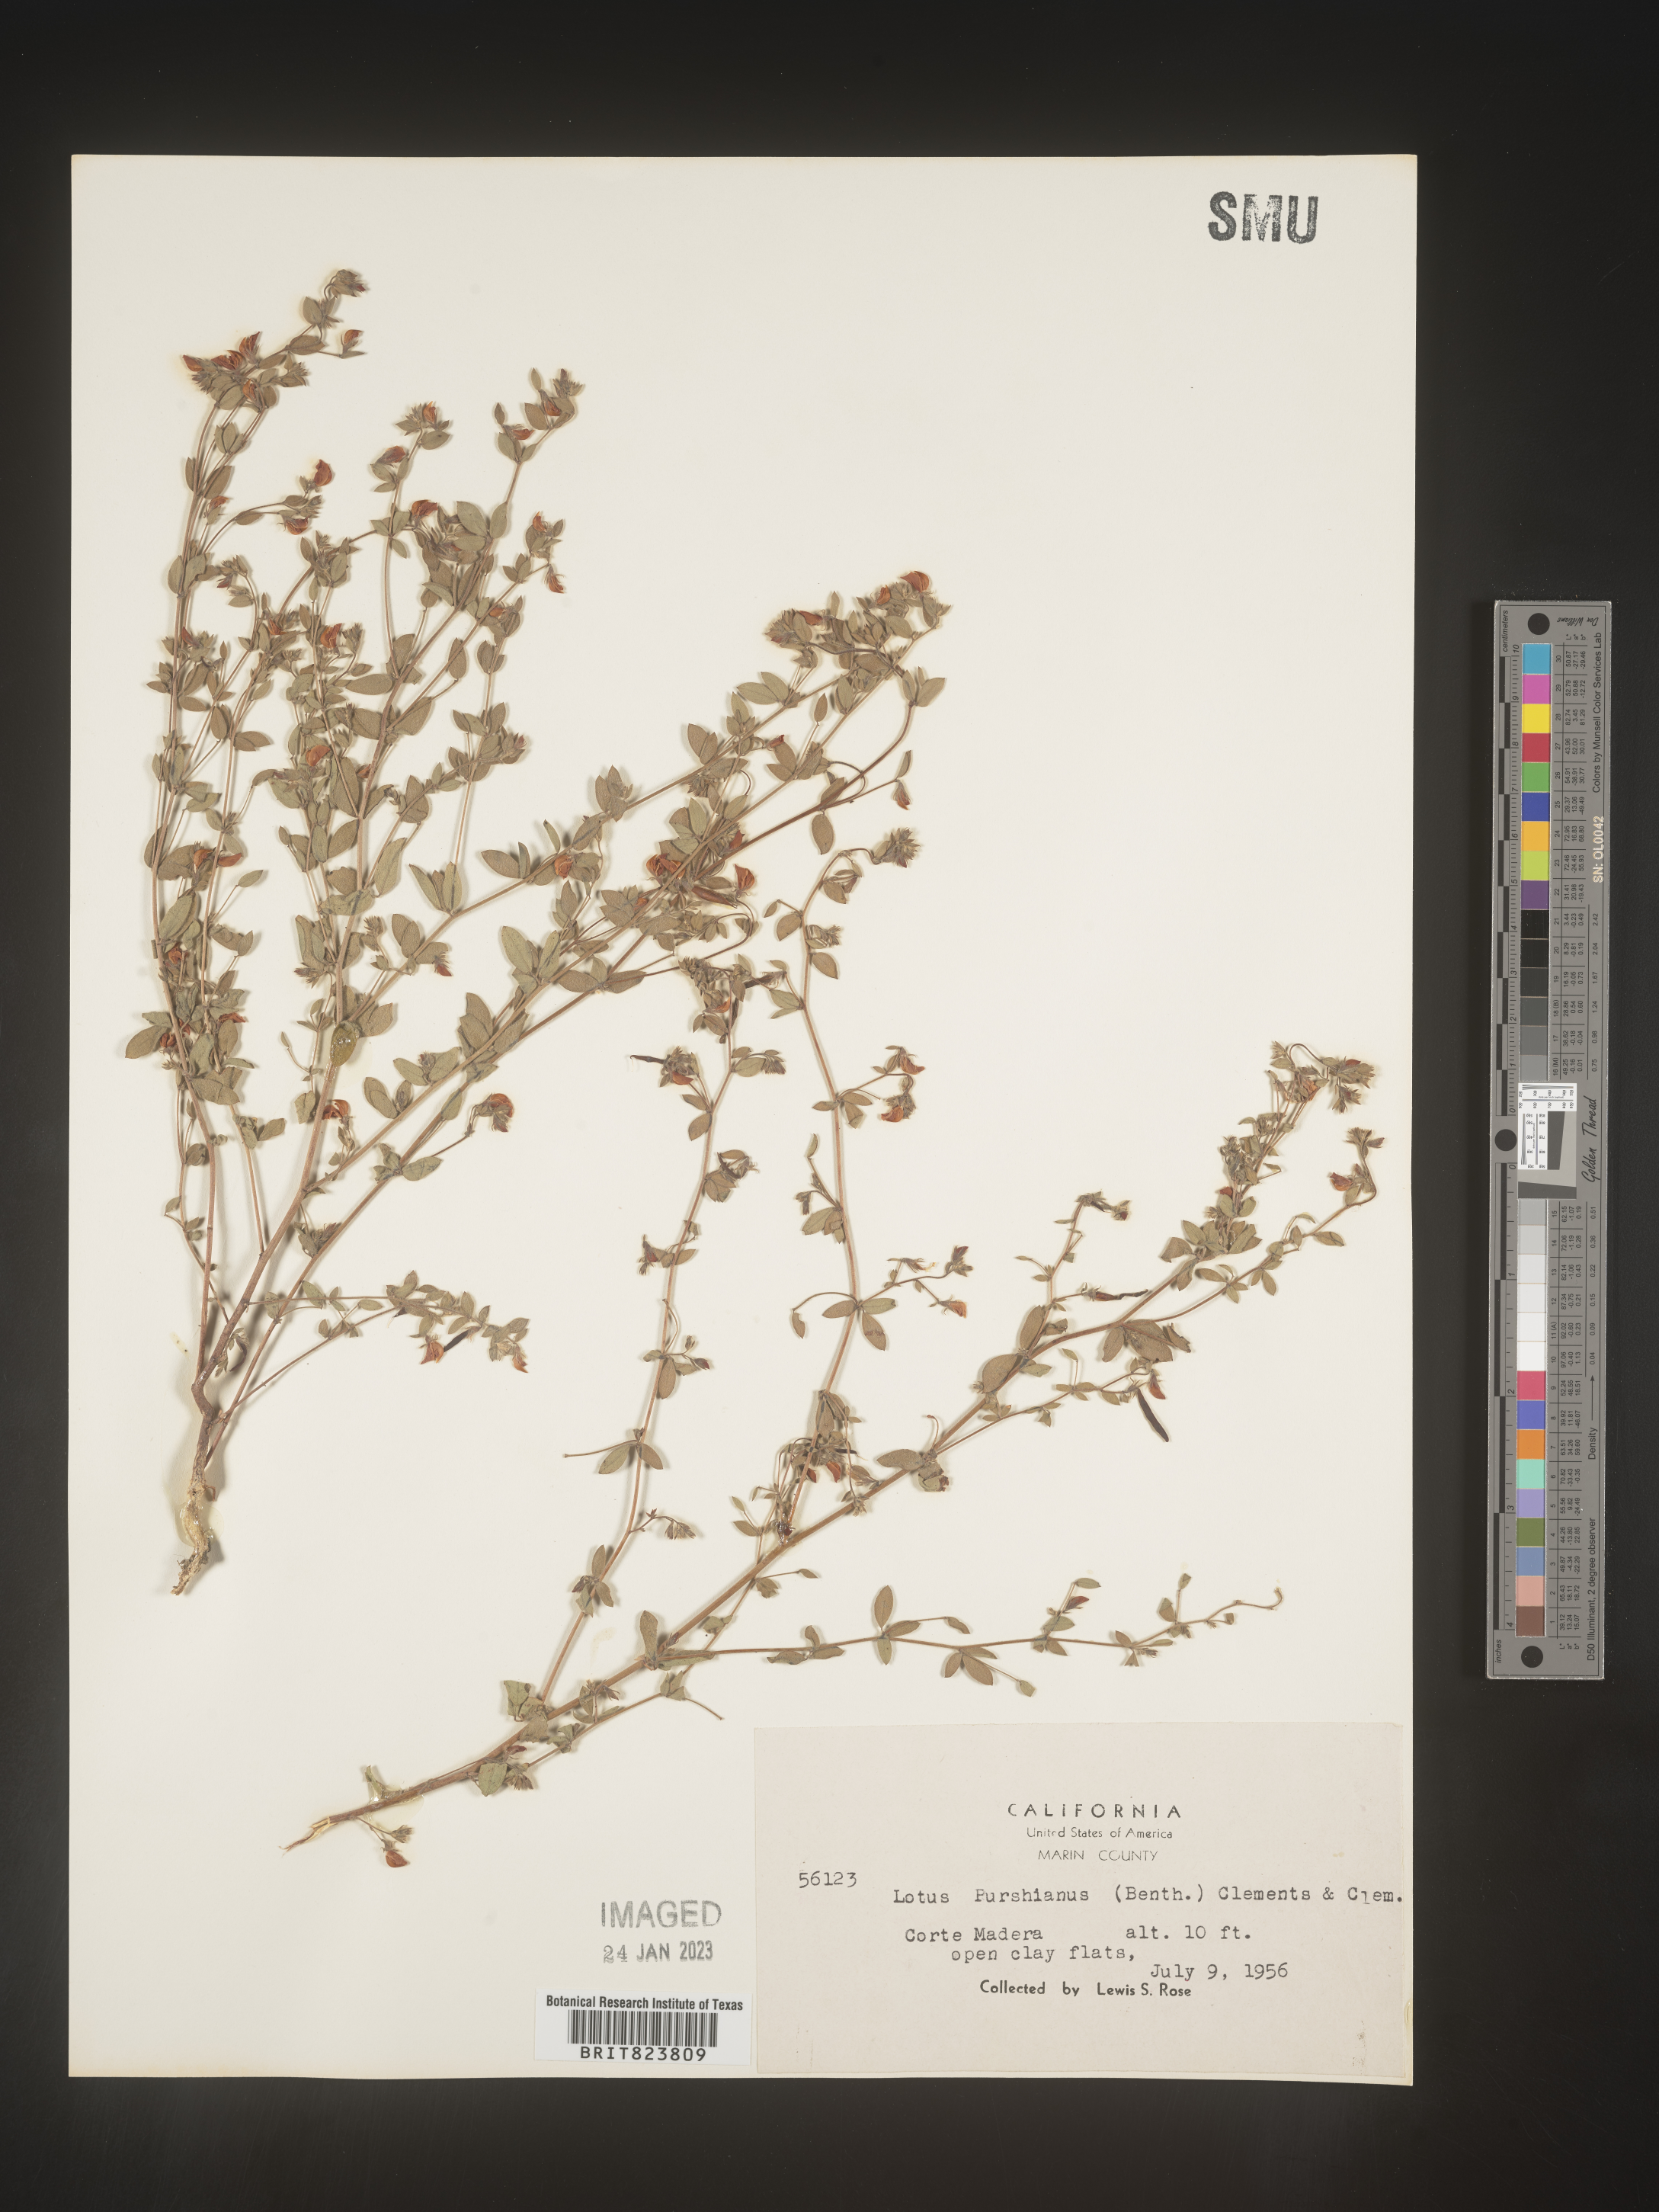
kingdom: Plantae
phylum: Tracheophyta
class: Magnoliopsida
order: Fabales
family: Fabaceae
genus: Acmispon
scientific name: Acmispon americanus
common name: American bird's-foot trefoil
